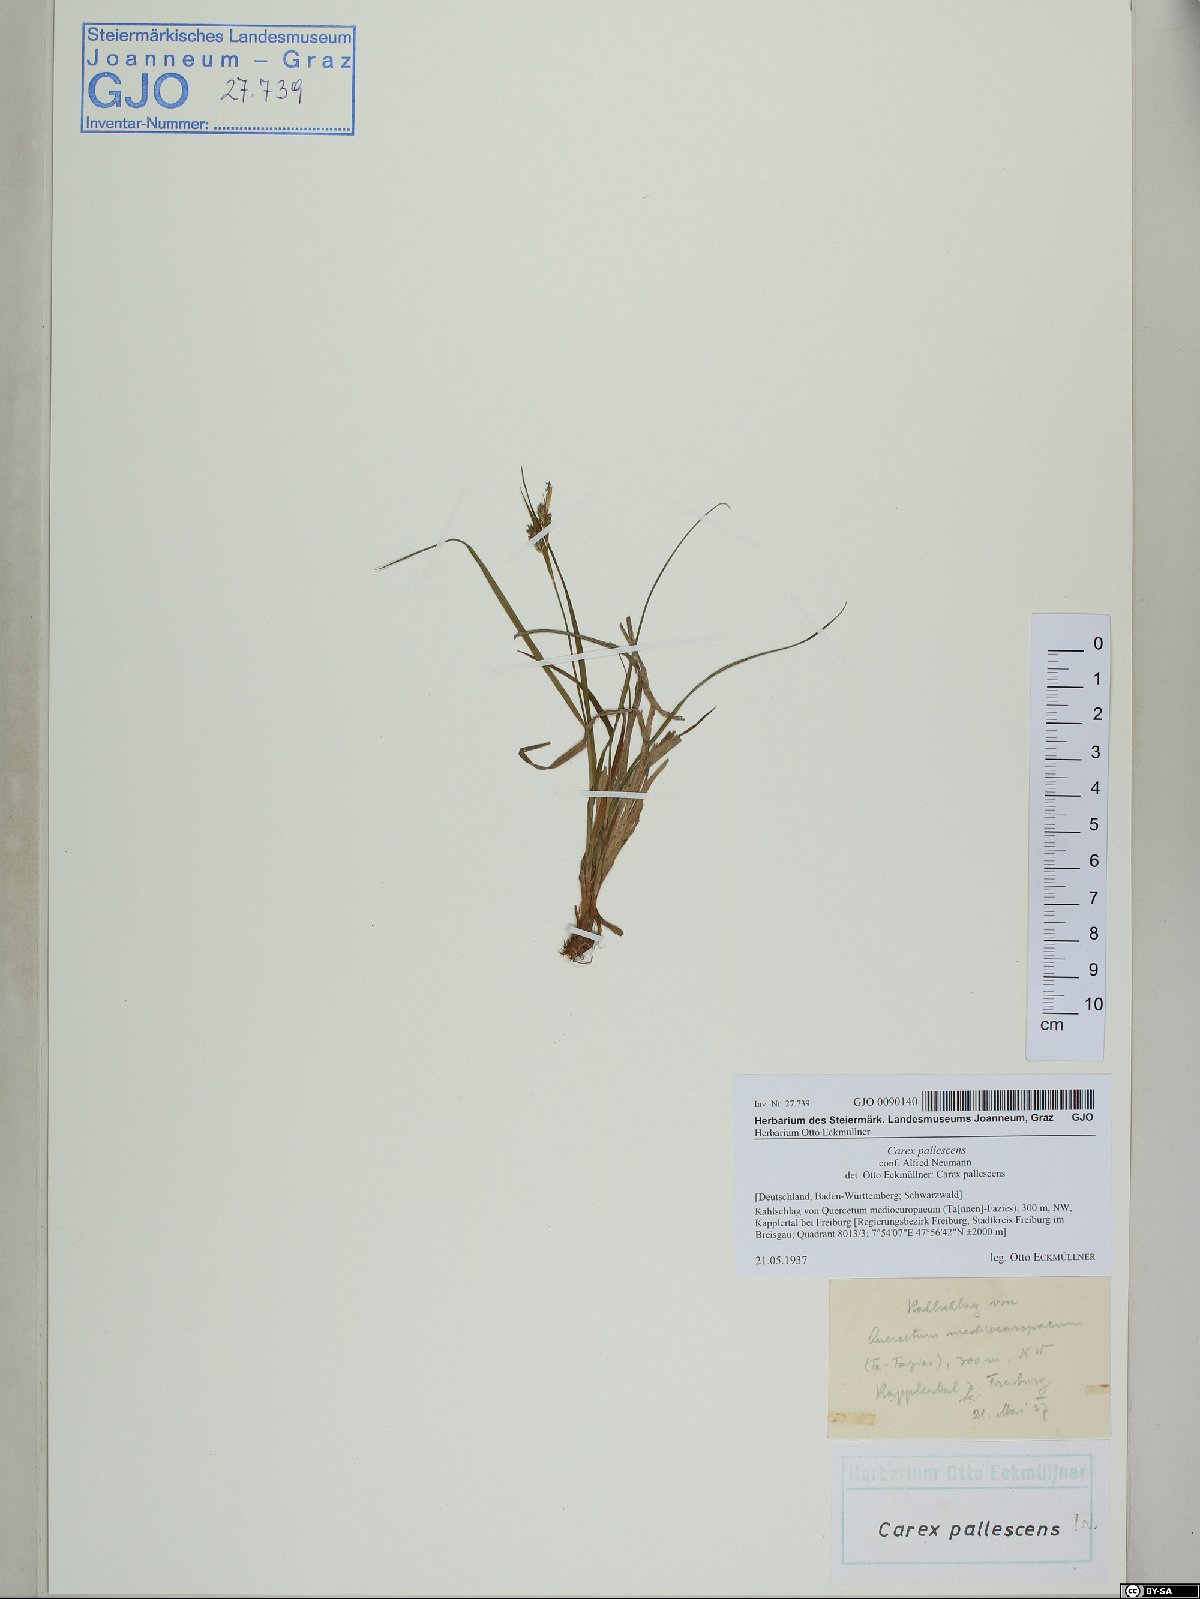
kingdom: Plantae
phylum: Tracheophyta
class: Liliopsida
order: Poales
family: Cyperaceae
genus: Carex
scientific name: Carex pallescens
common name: Pale sedge
